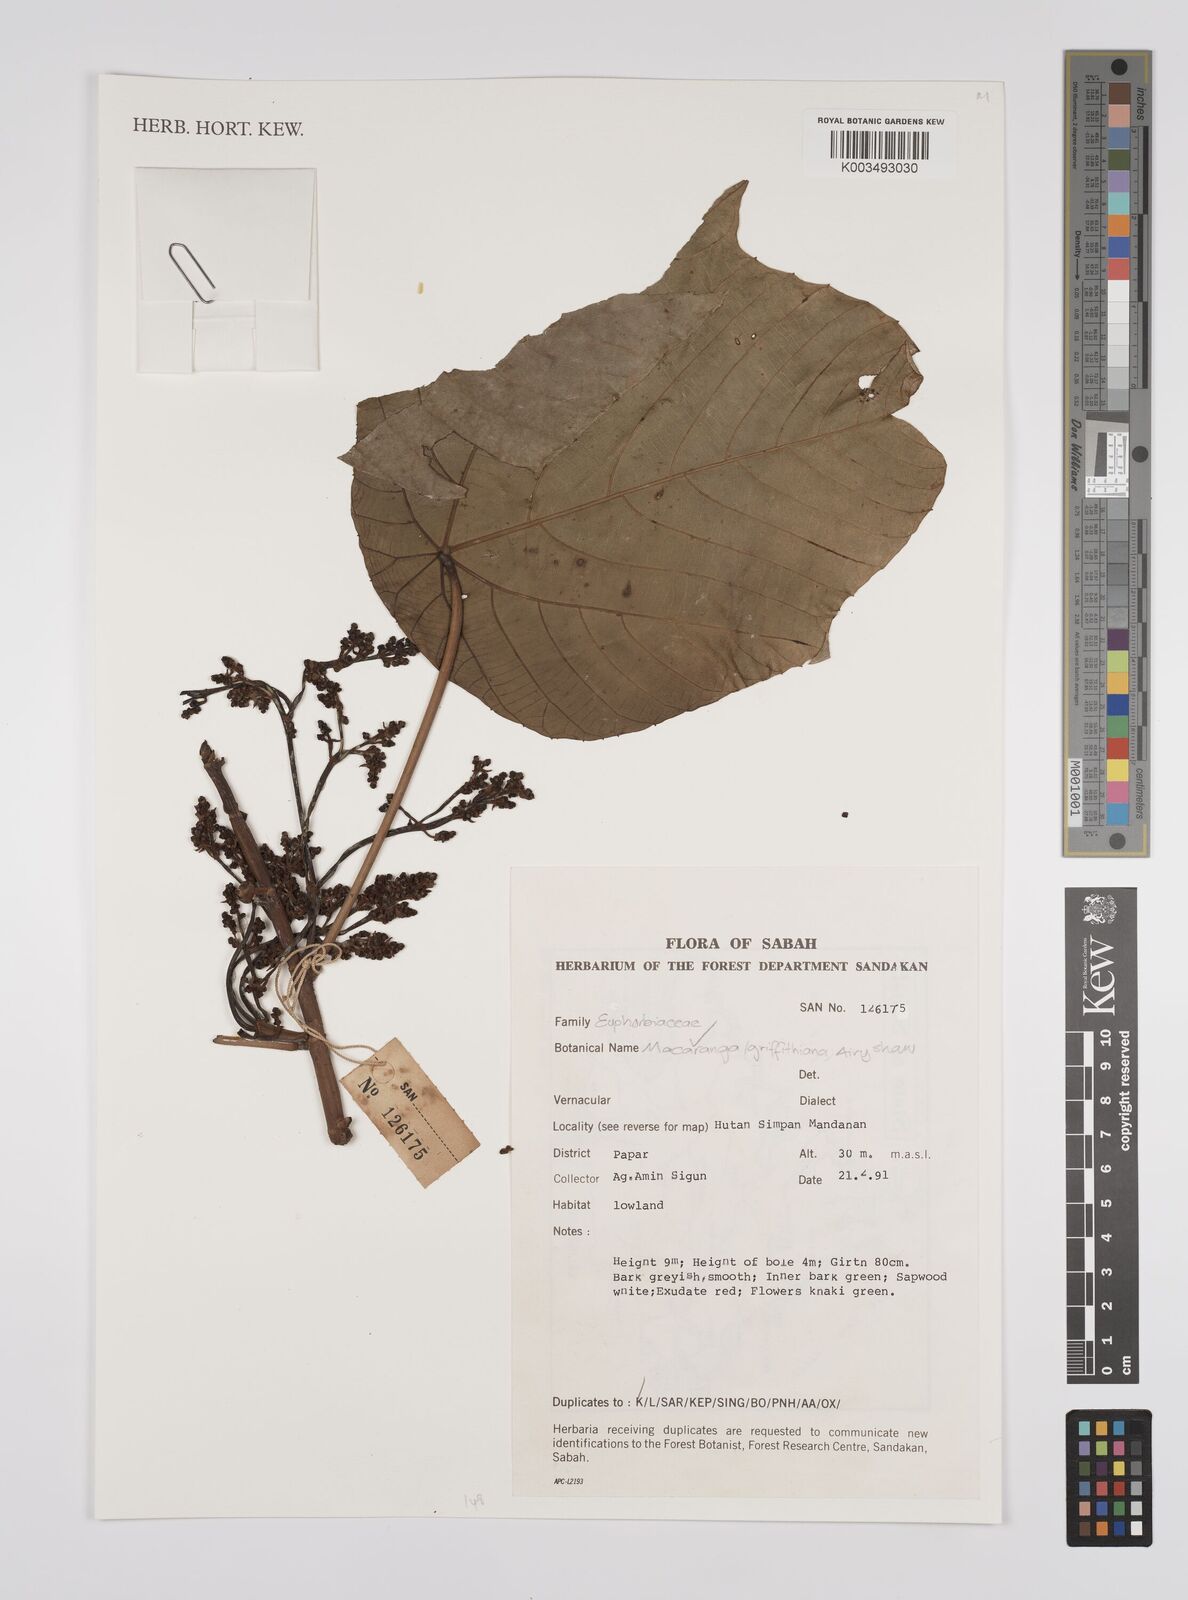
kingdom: Plantae
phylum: Tracheophyta
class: Magnoliopsida
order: Malpighiales
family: Euphorbiaceae
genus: Macaranga
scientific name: Macaranga griffithiana
